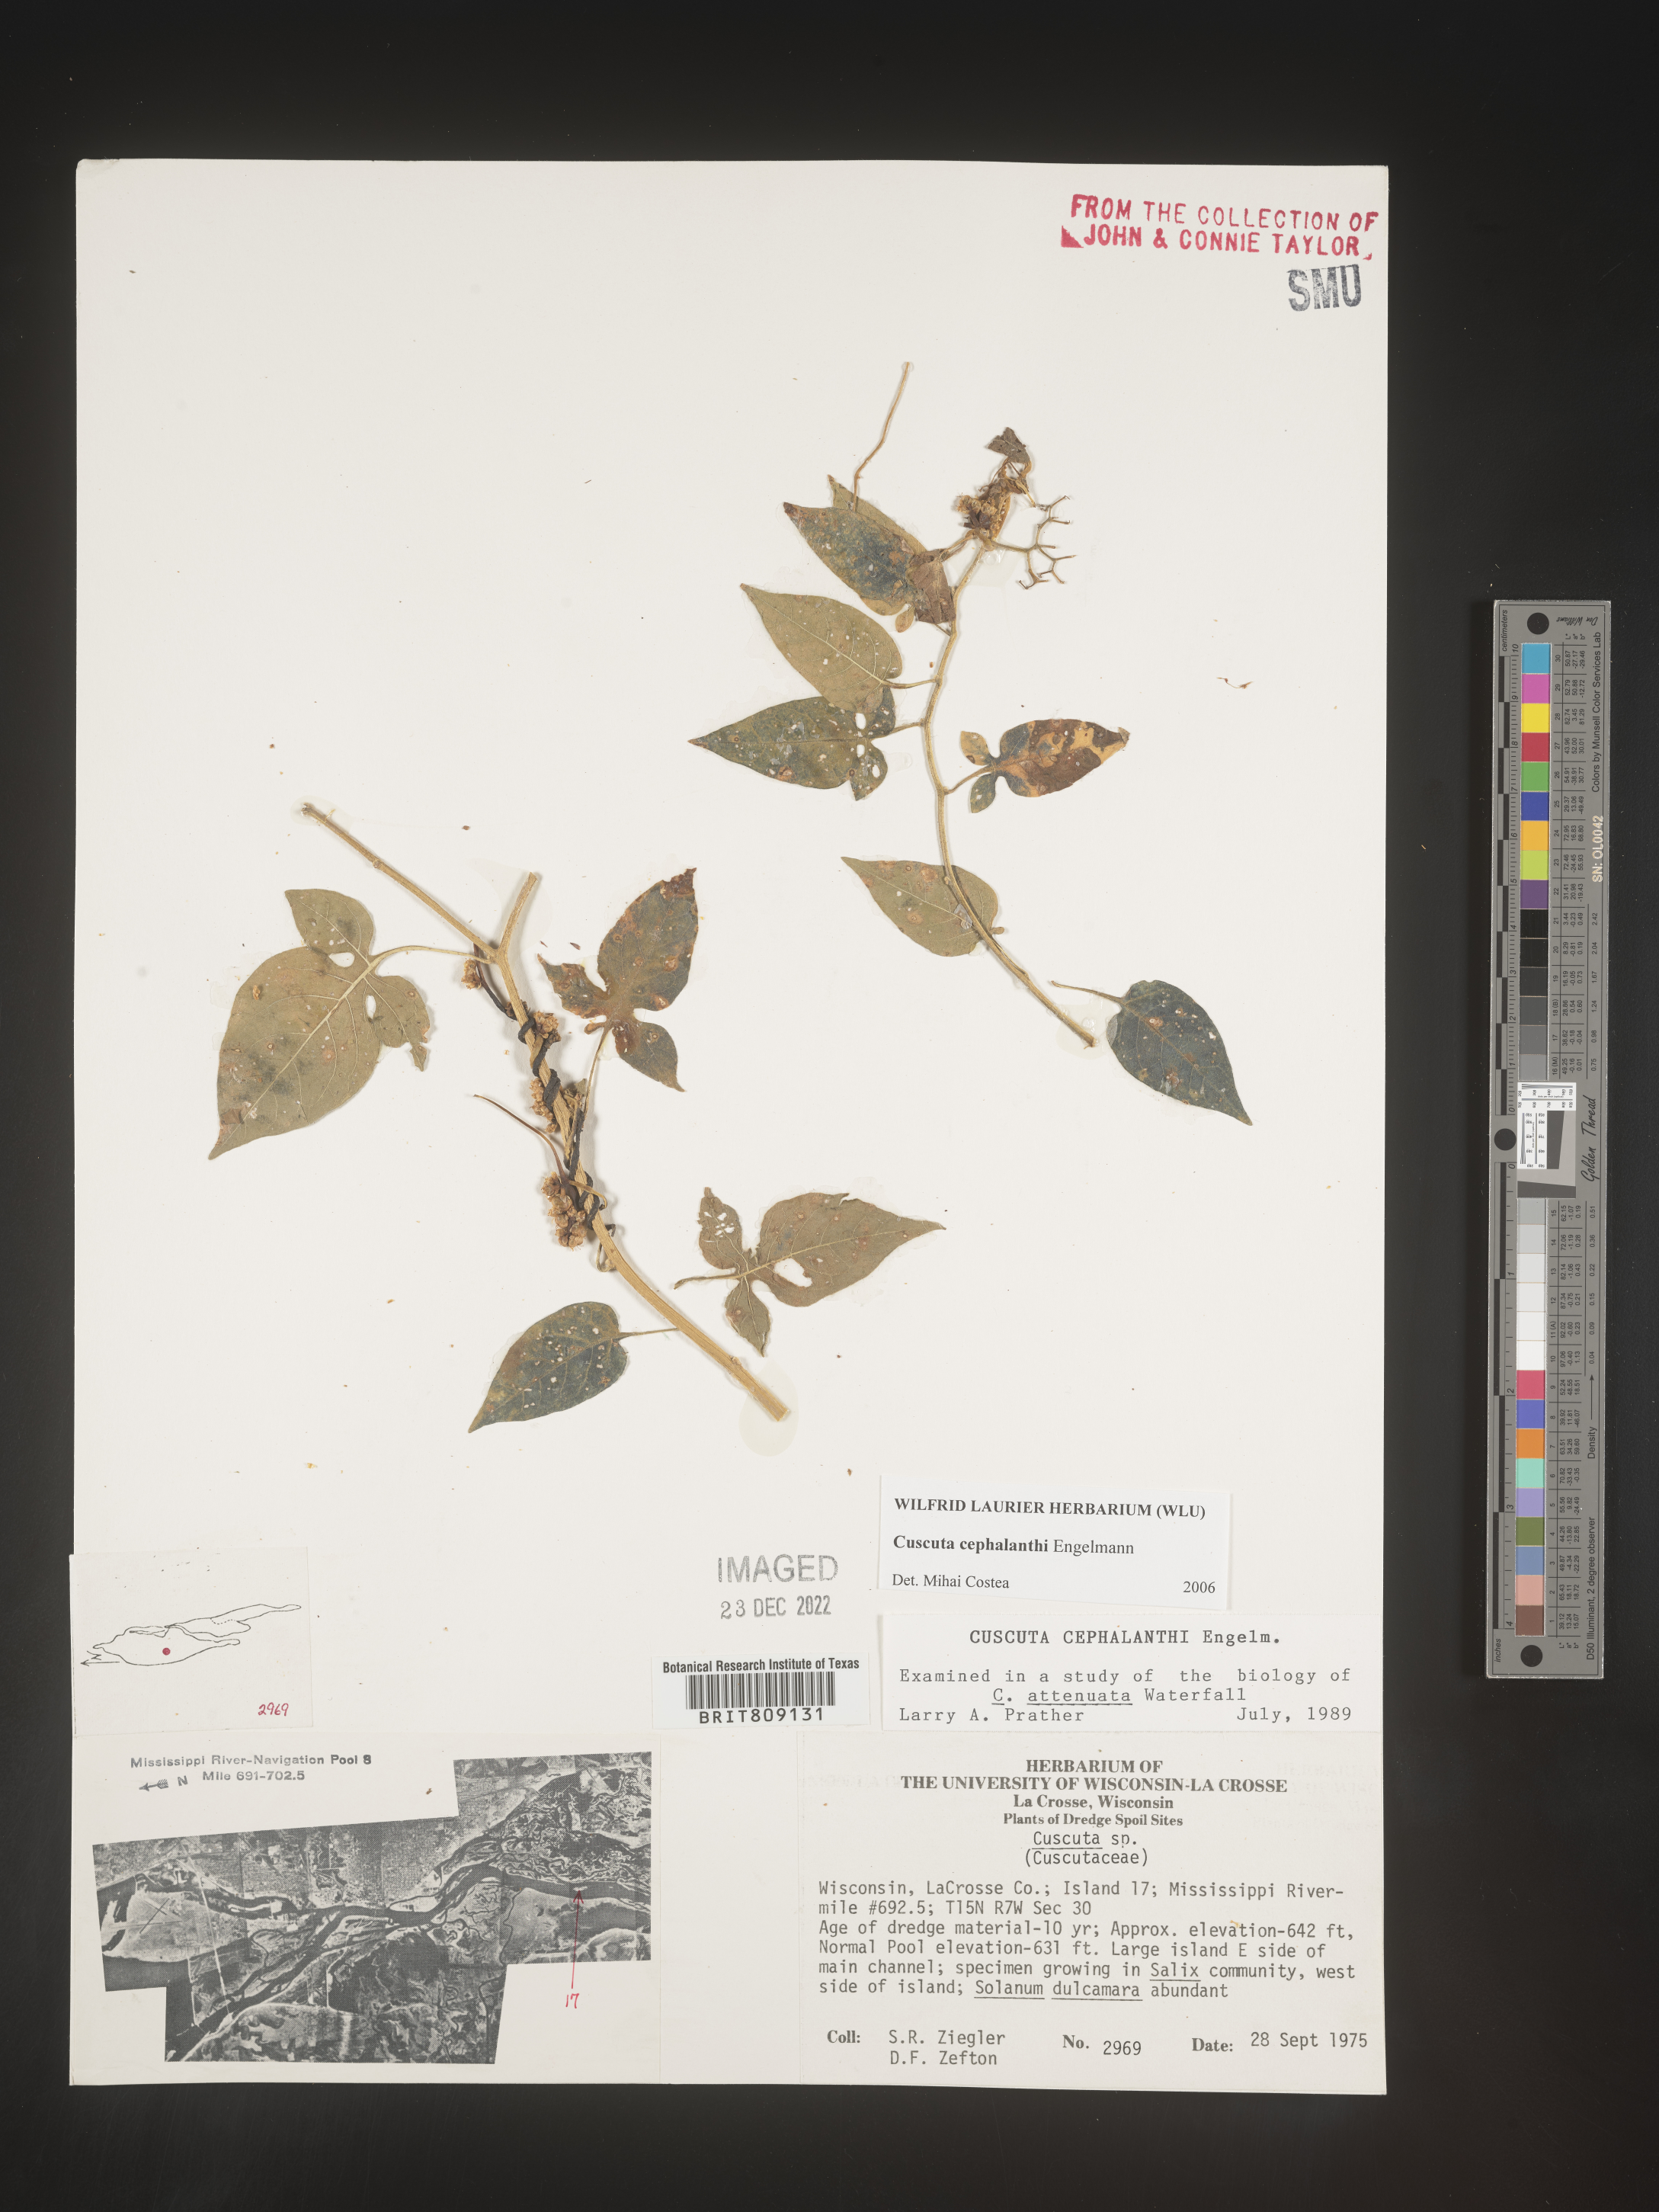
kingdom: Plantae
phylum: Tracheophyta
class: Magnoliopsida
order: Solanales
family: Convolvulaceae
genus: Cuscuta
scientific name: Cuscuta cephalanthi
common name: Button dodder
